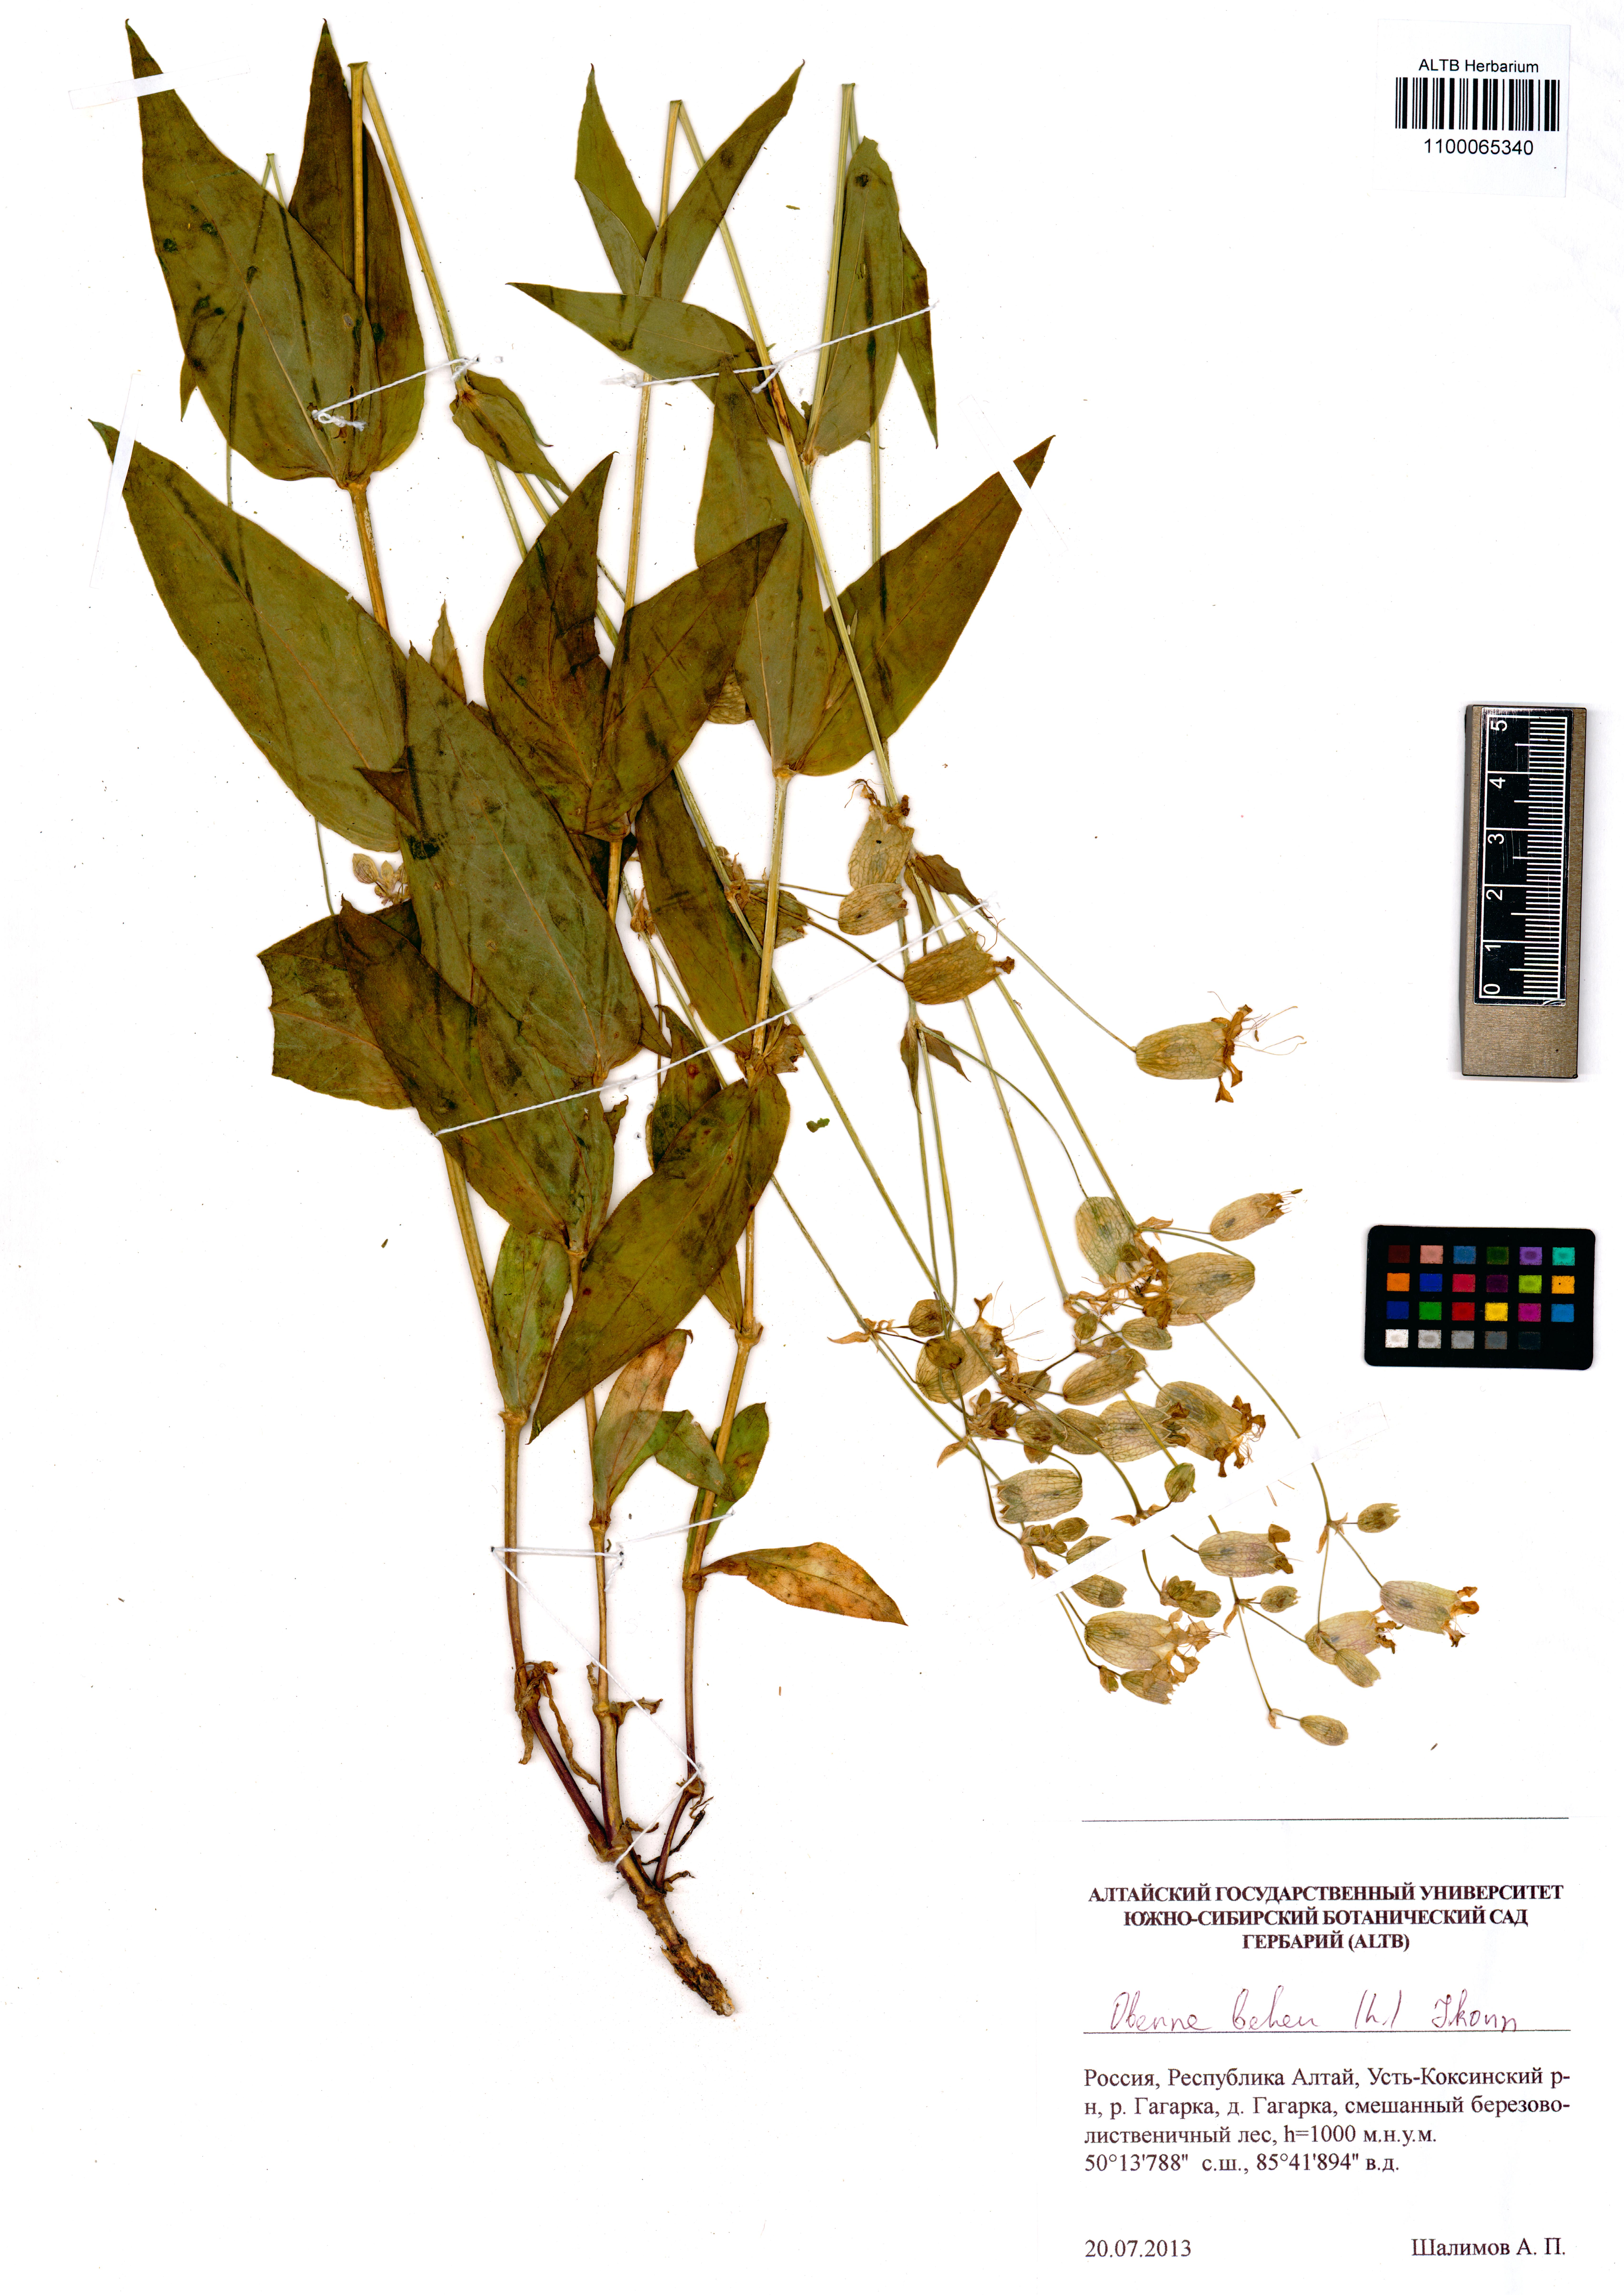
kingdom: Plantae
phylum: Tracheophyta
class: Magnoliopsida
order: Caryophyllales
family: Caryophyllaceae
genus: Silene
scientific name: Silene behen
